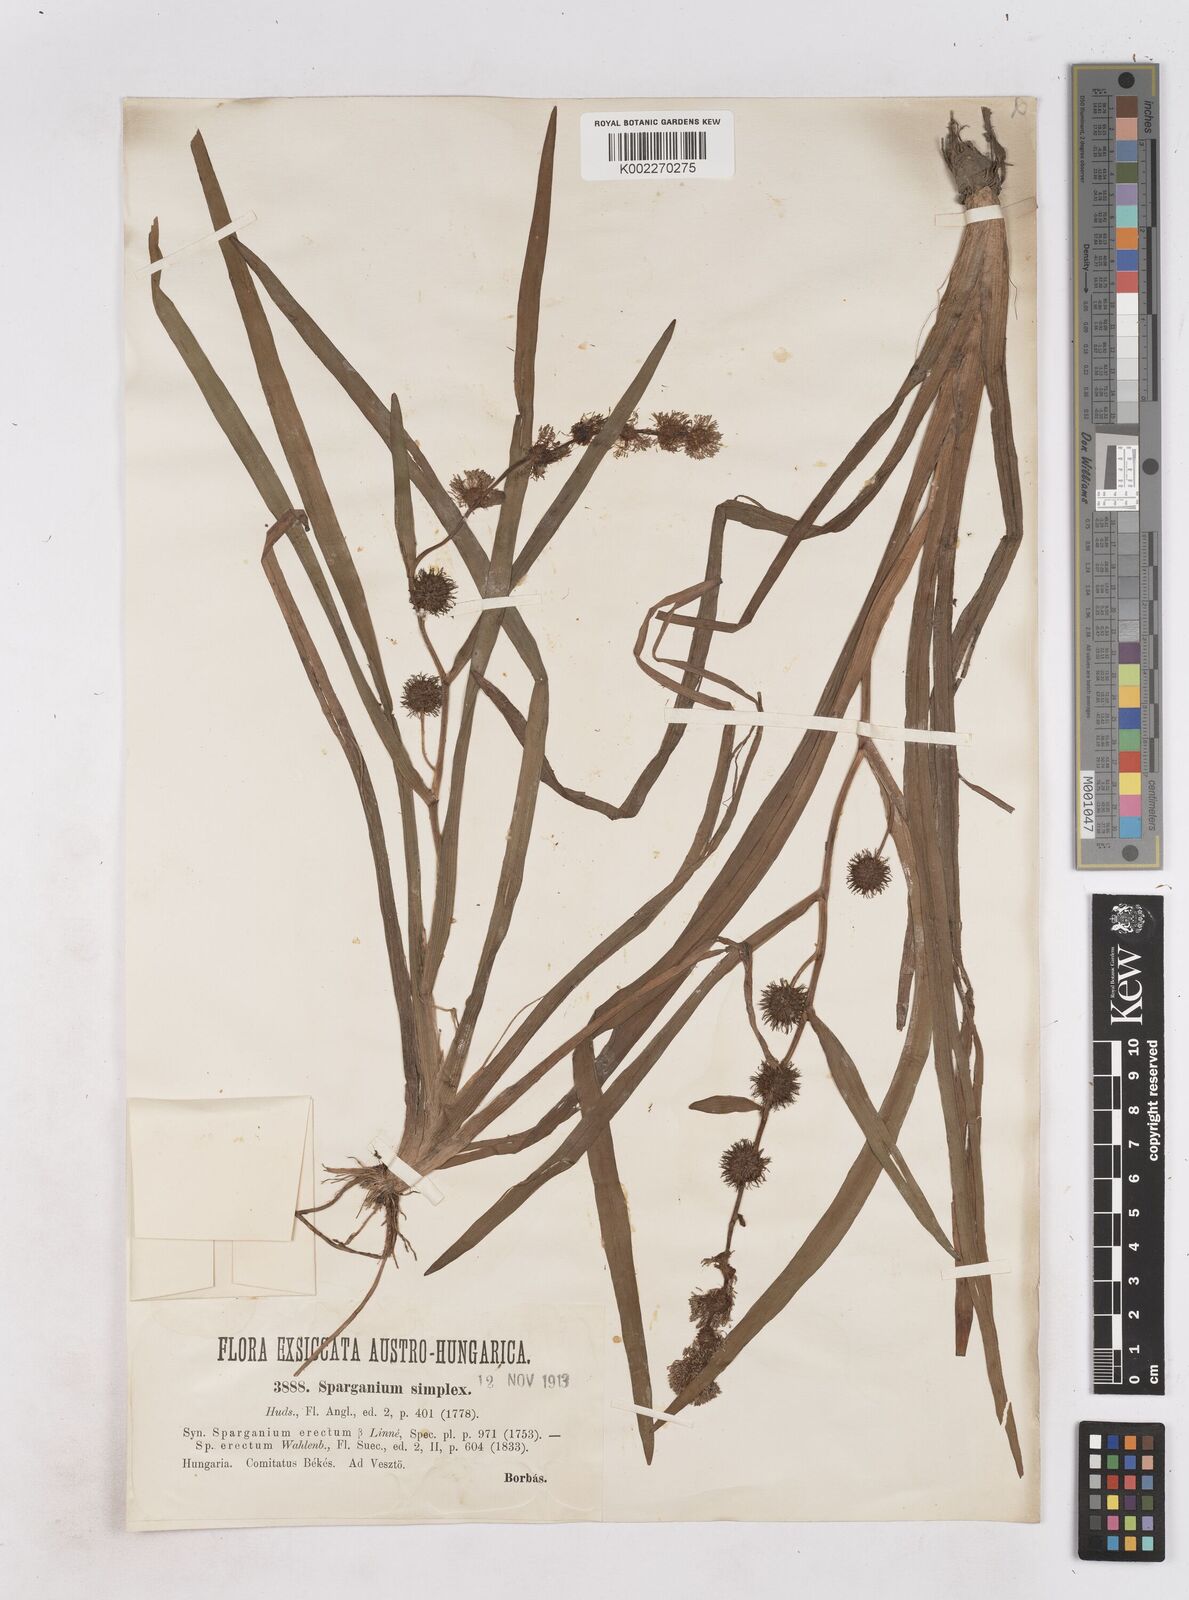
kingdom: Plantae
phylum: Tracheophyta
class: Liliopsida
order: Poales
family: Typhaceae
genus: Sparganium
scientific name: Sparganium emersum
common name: Unbranched bur-reed
